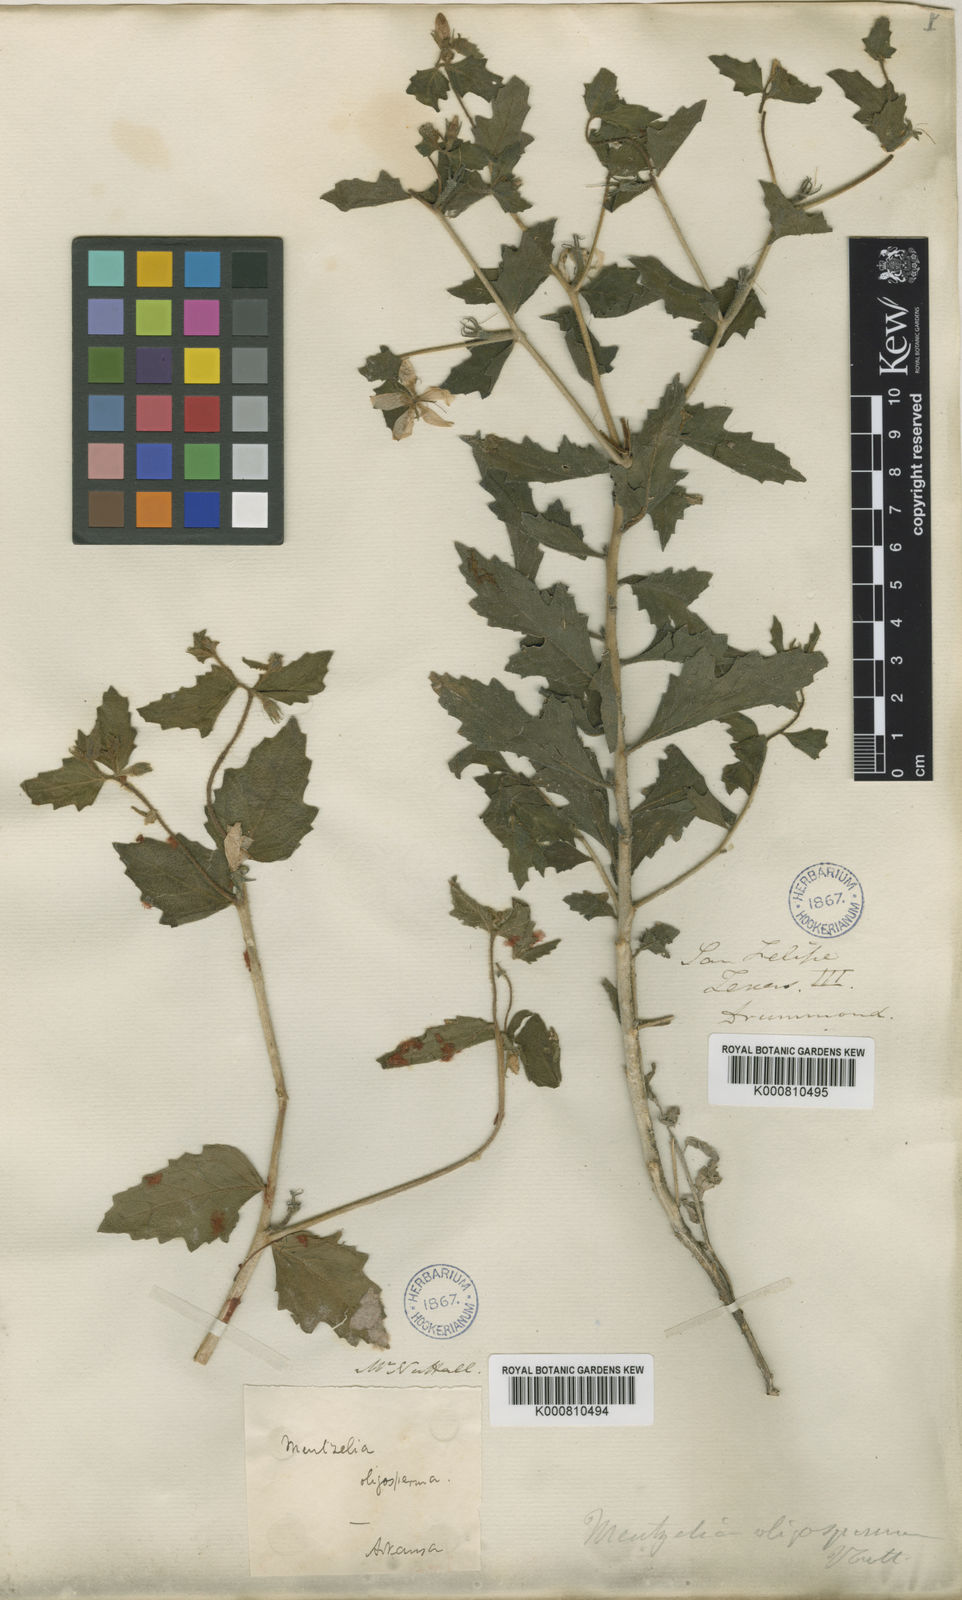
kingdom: Plantae
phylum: Tracheophyta
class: Magnoliopsida
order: Cornales
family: Loasaceae
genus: Mentzelia
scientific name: Mentzelia oligosperma
